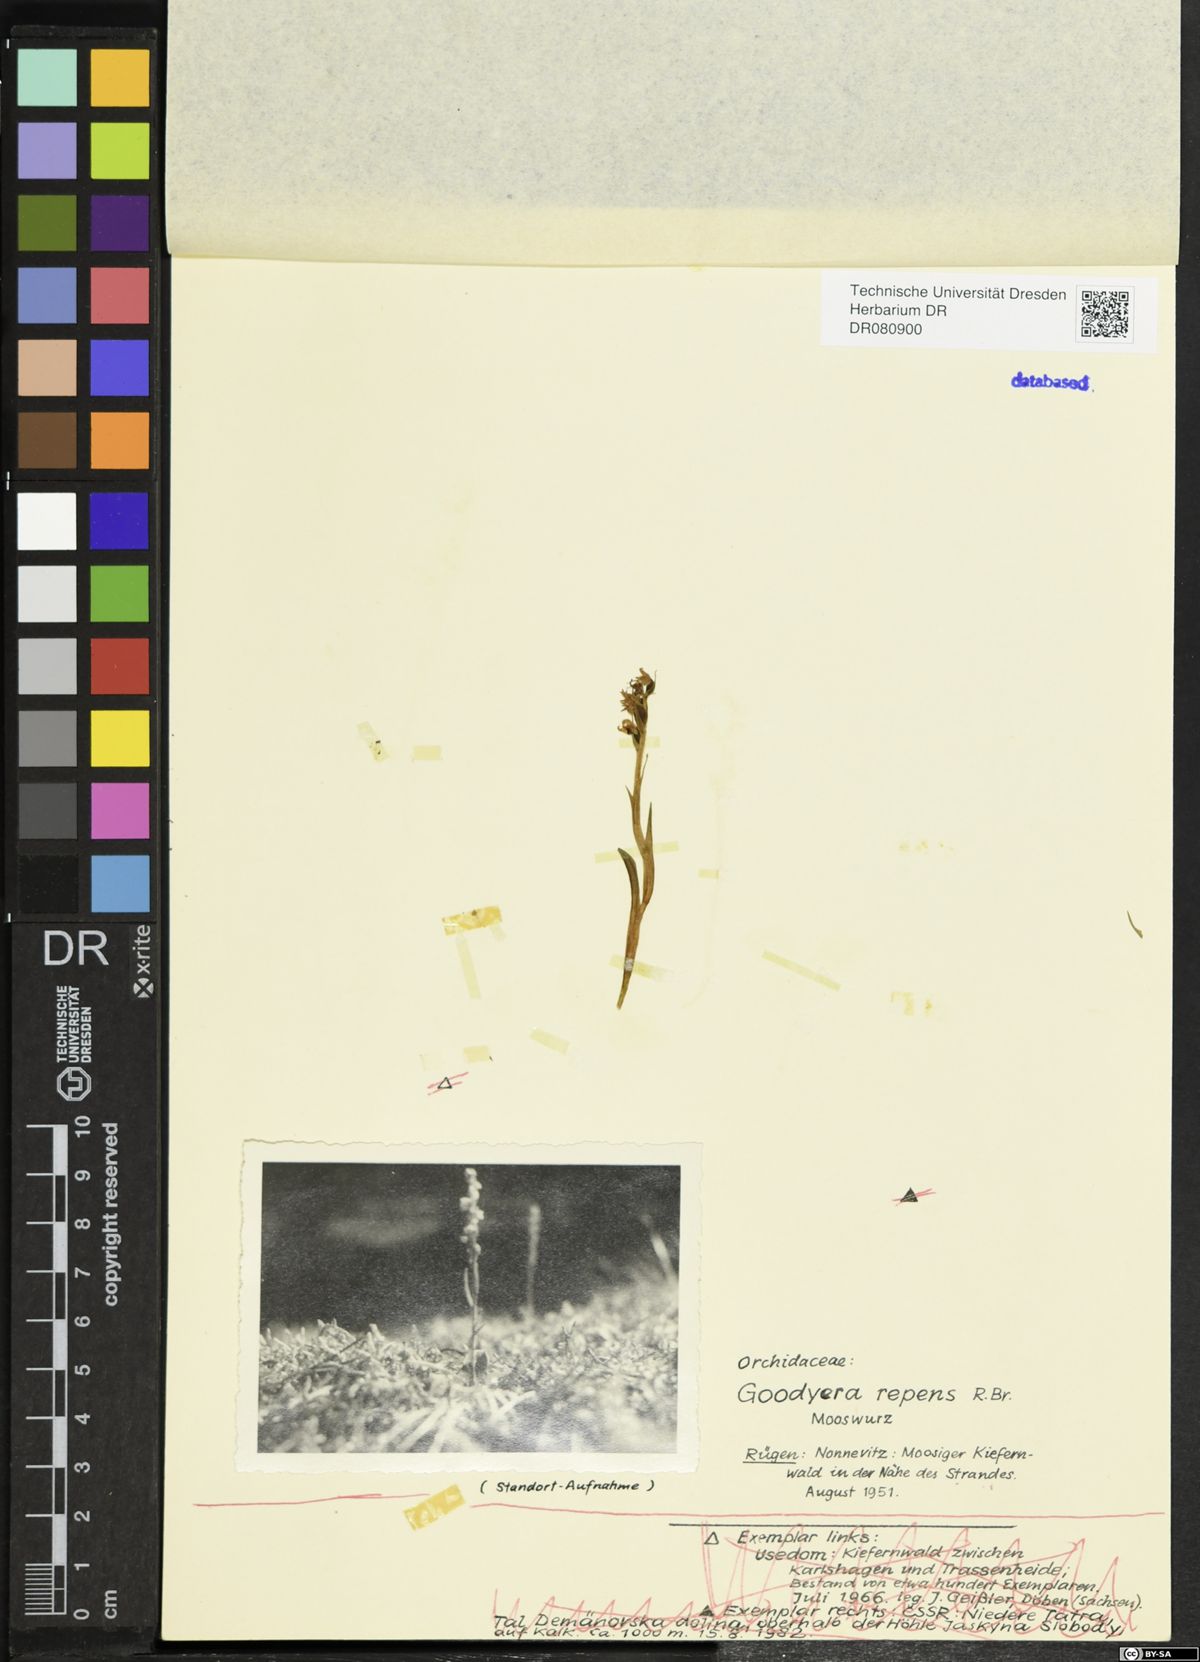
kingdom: Plantae
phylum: Tracheophyta
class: Liliopsida
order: Asparagales
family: Orchidaceae
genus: Goodyera
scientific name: Goodyera repens
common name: Creeping lady's-tresses
